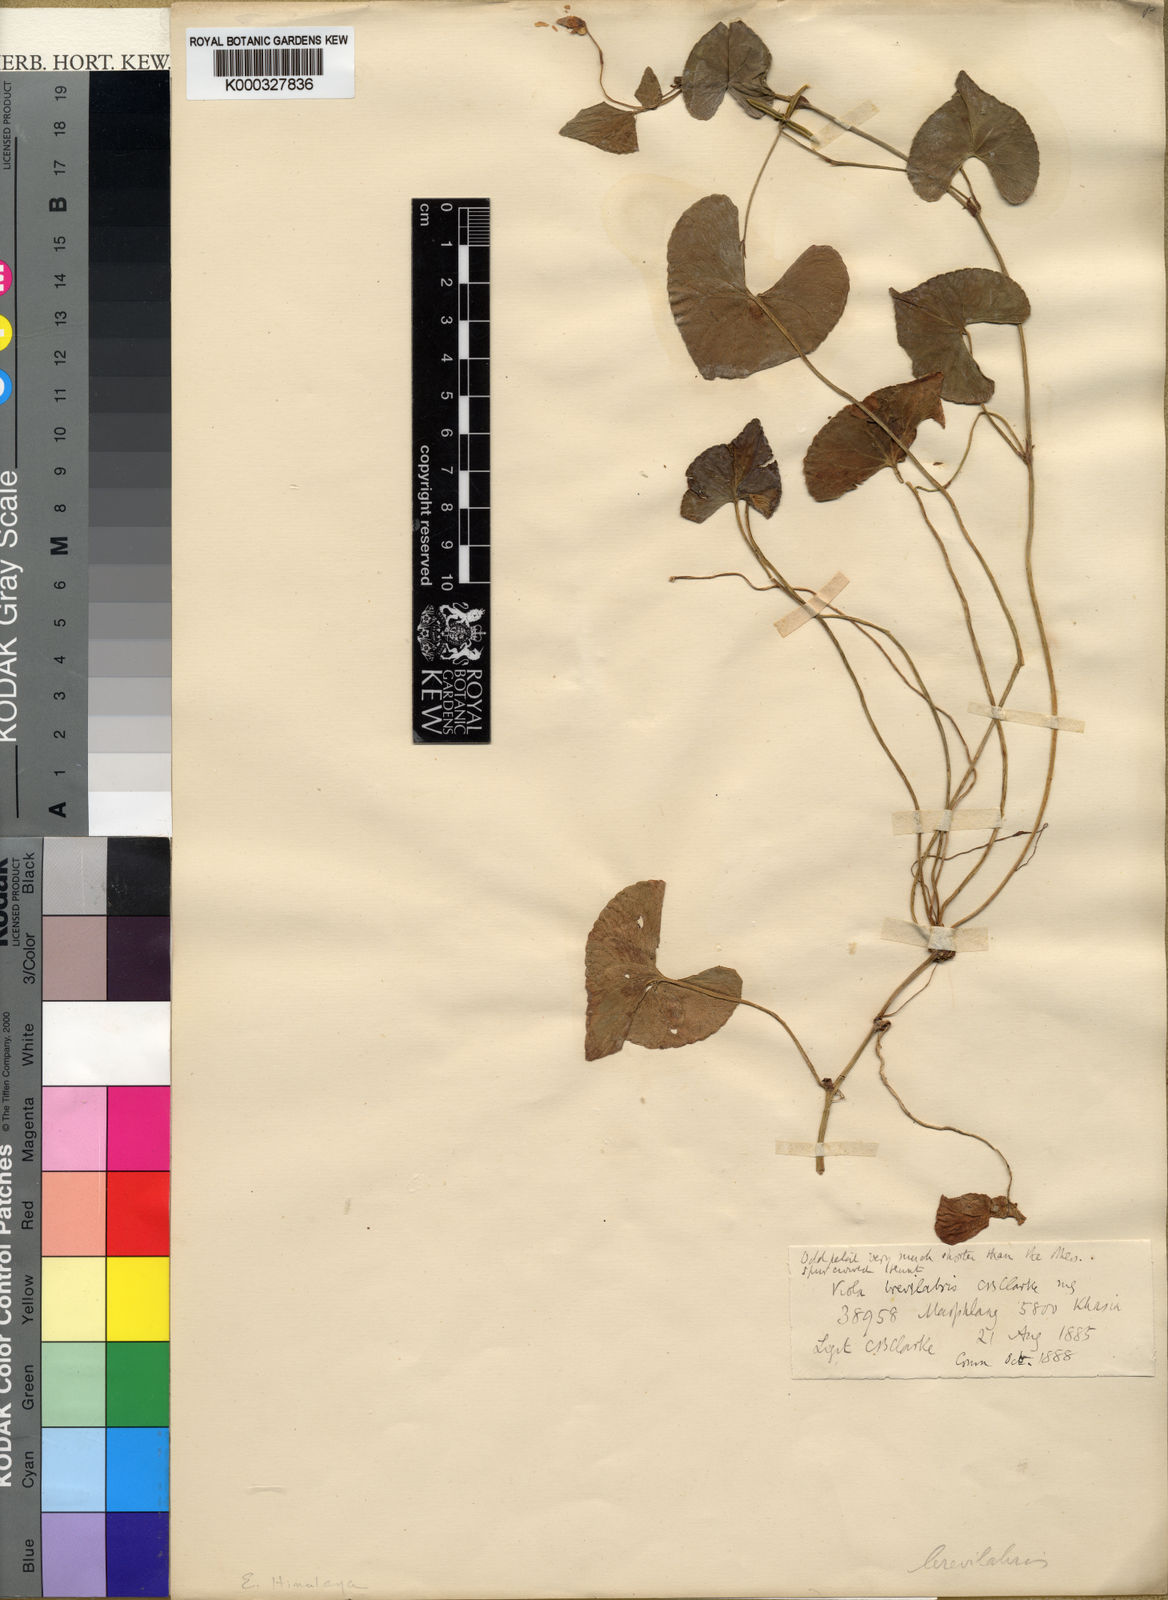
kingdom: Plantae
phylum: Tracheophyta
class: Magnoliopsida
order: Malpighiales
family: Violaceae
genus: Viola
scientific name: Viola
